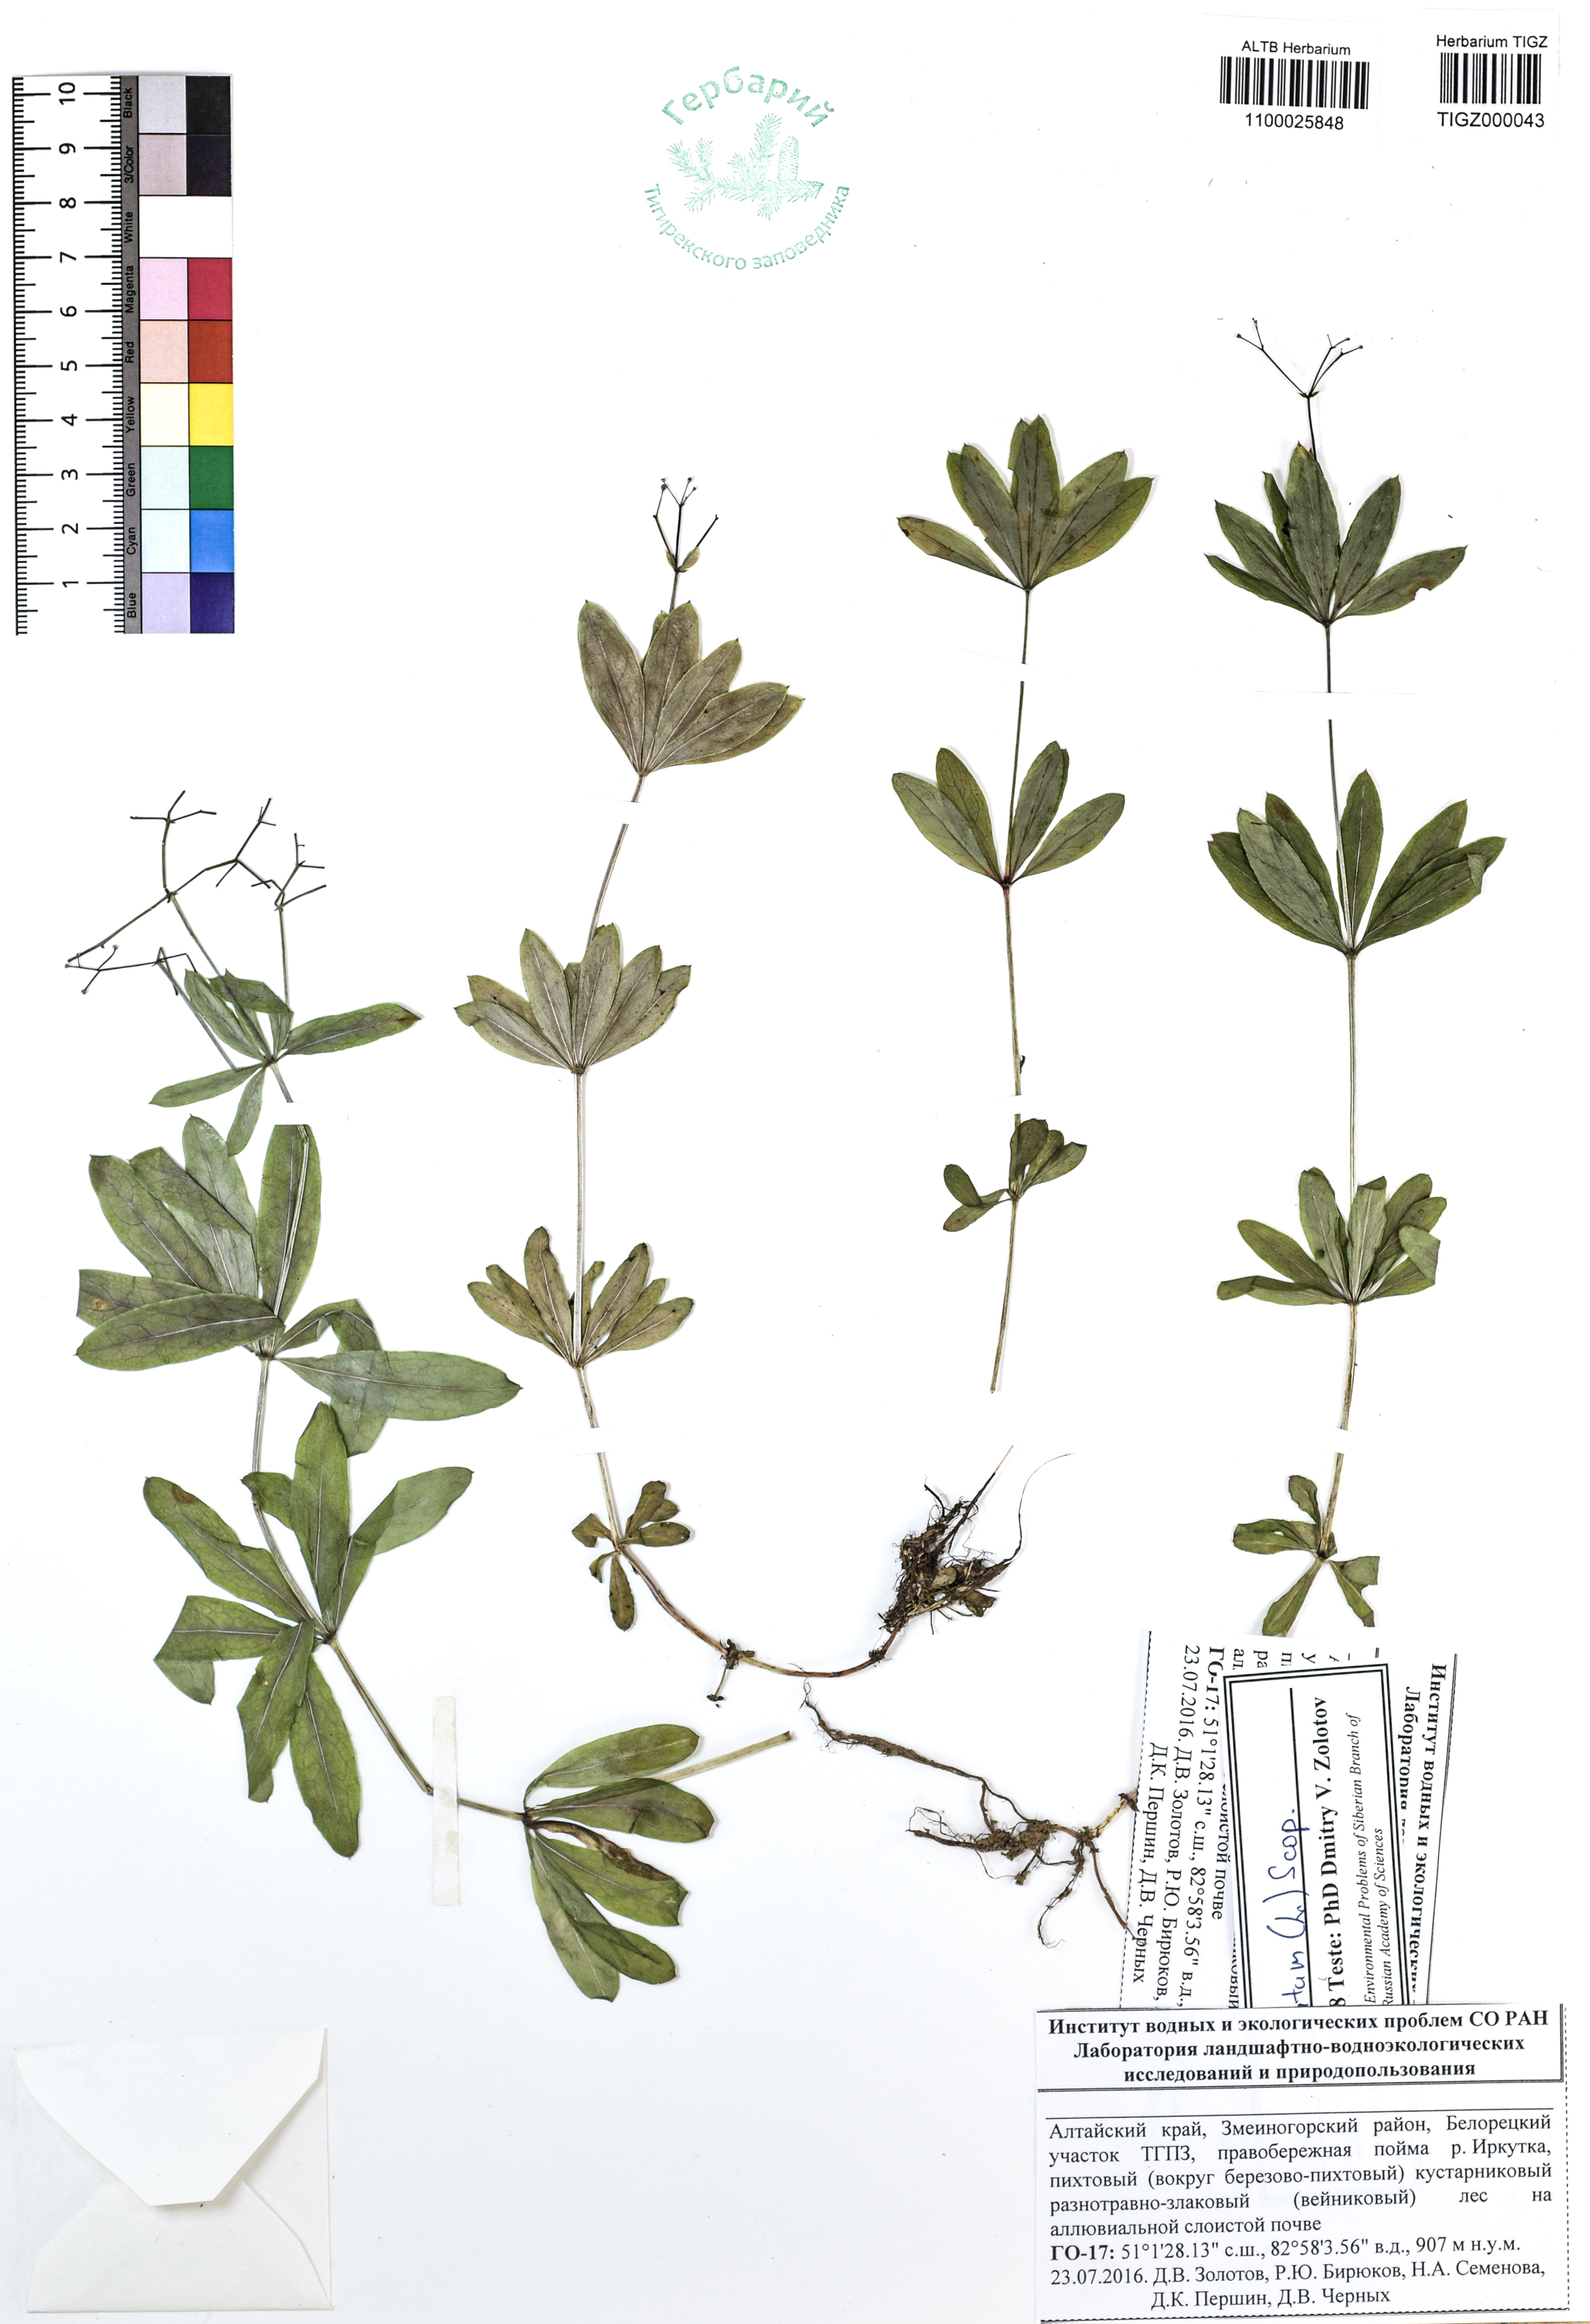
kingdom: Plantae
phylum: Tracheophyta
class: Magnoliopsida
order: Gentianales
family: Rubiaceae
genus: Galium
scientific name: Galium odoratum
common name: Sweet woodruff
